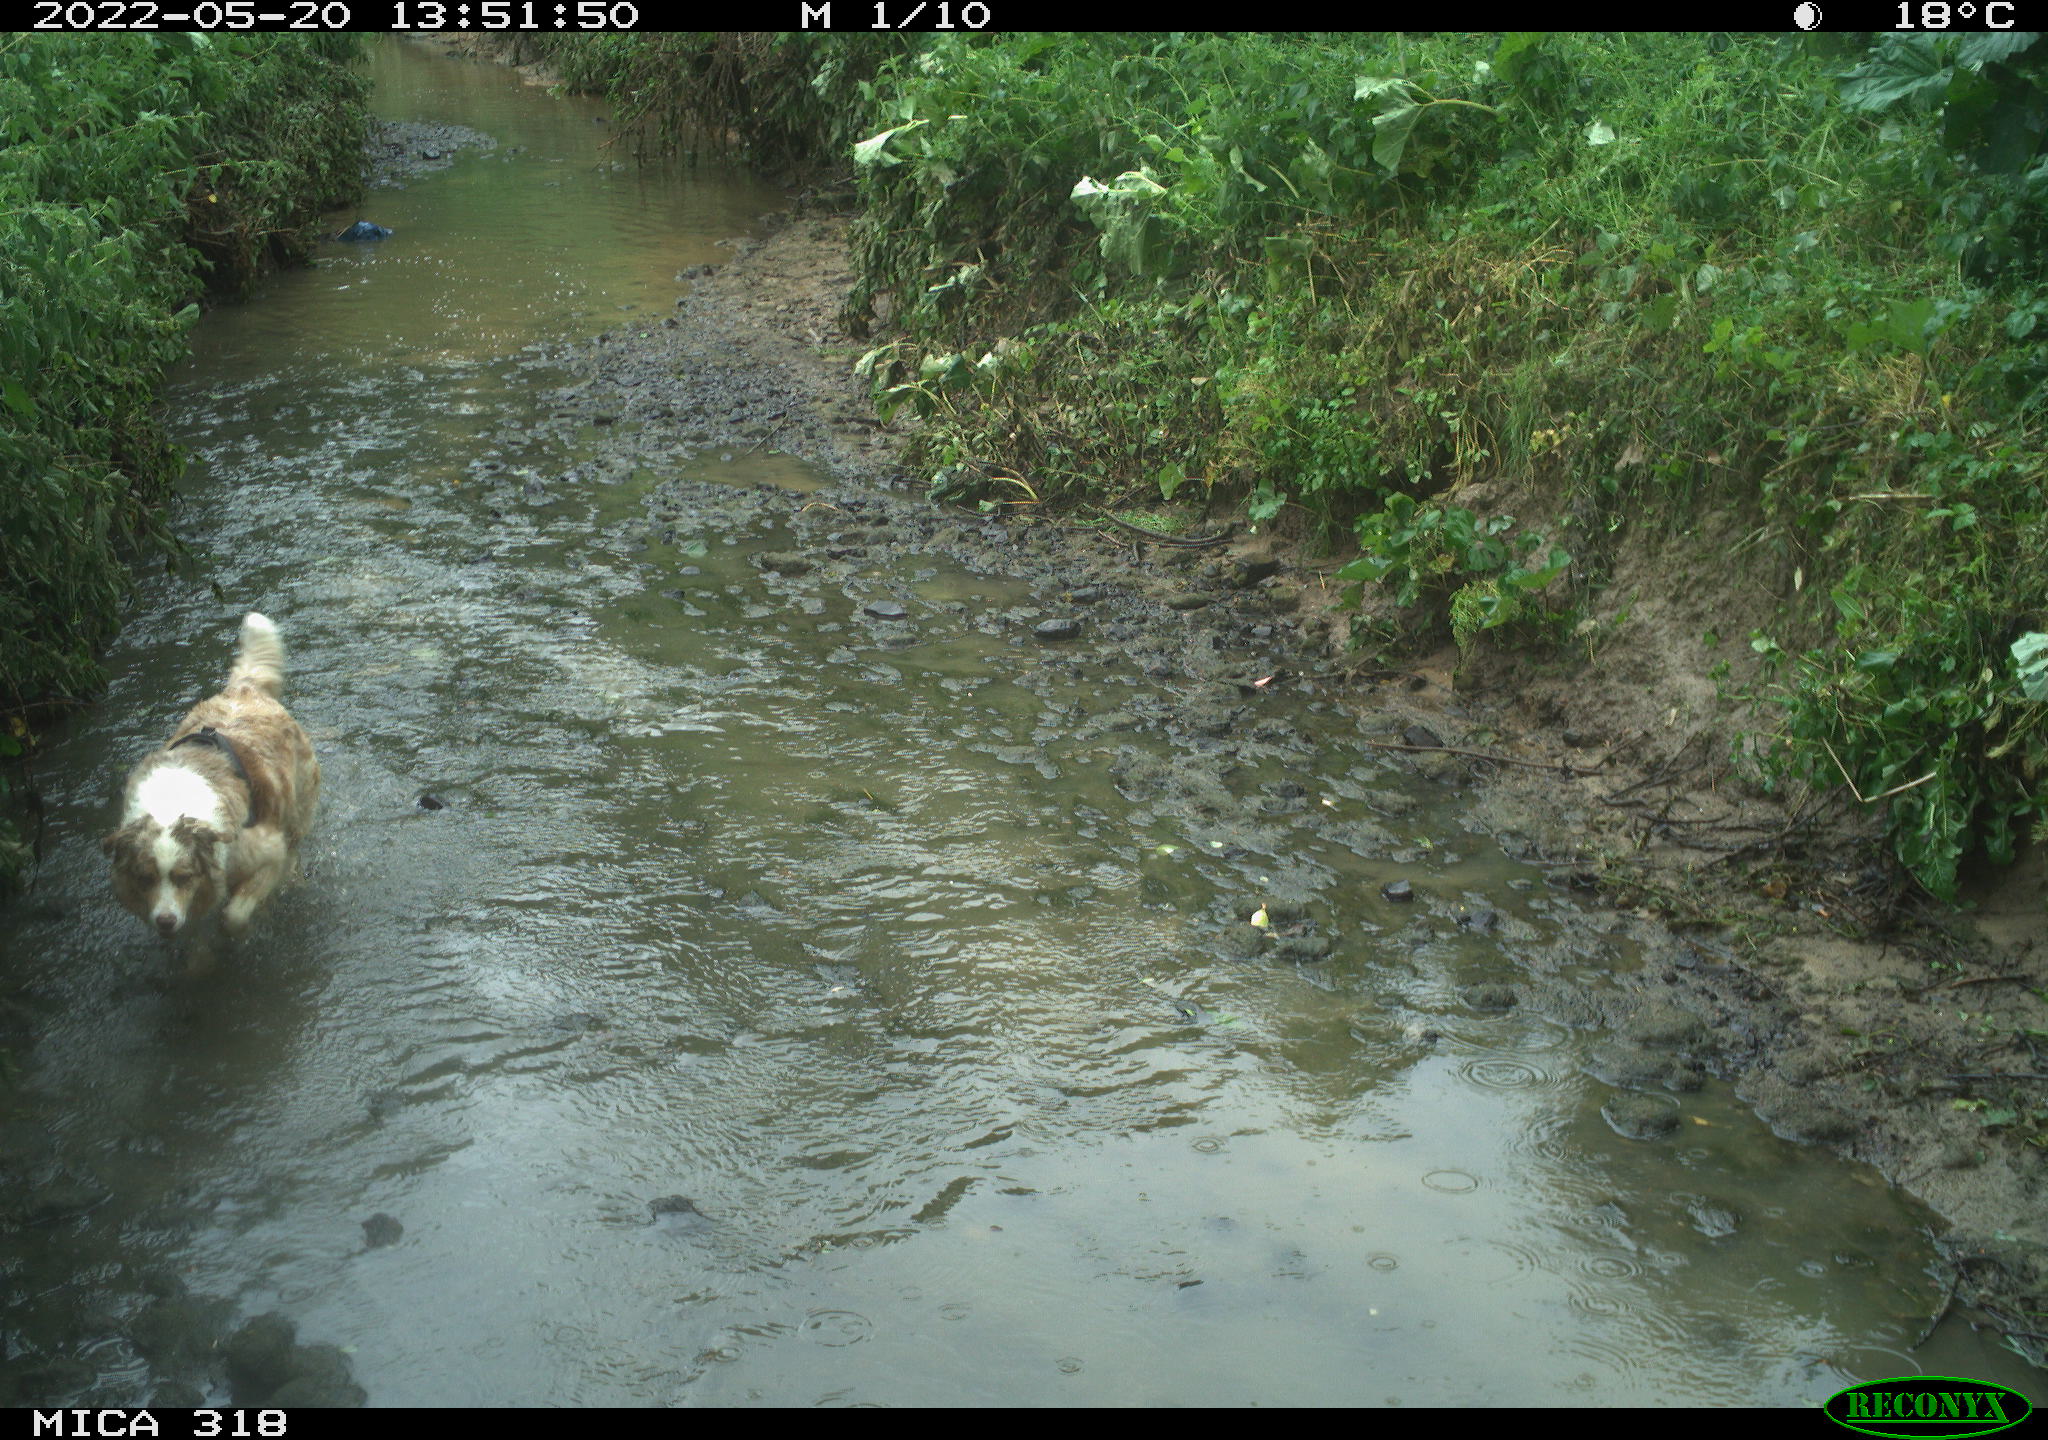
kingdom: Animalia
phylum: Chordata
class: Mammalia
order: Carnivora
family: Canidae
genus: Canis
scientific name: Canis lupus
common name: Gray wolf
